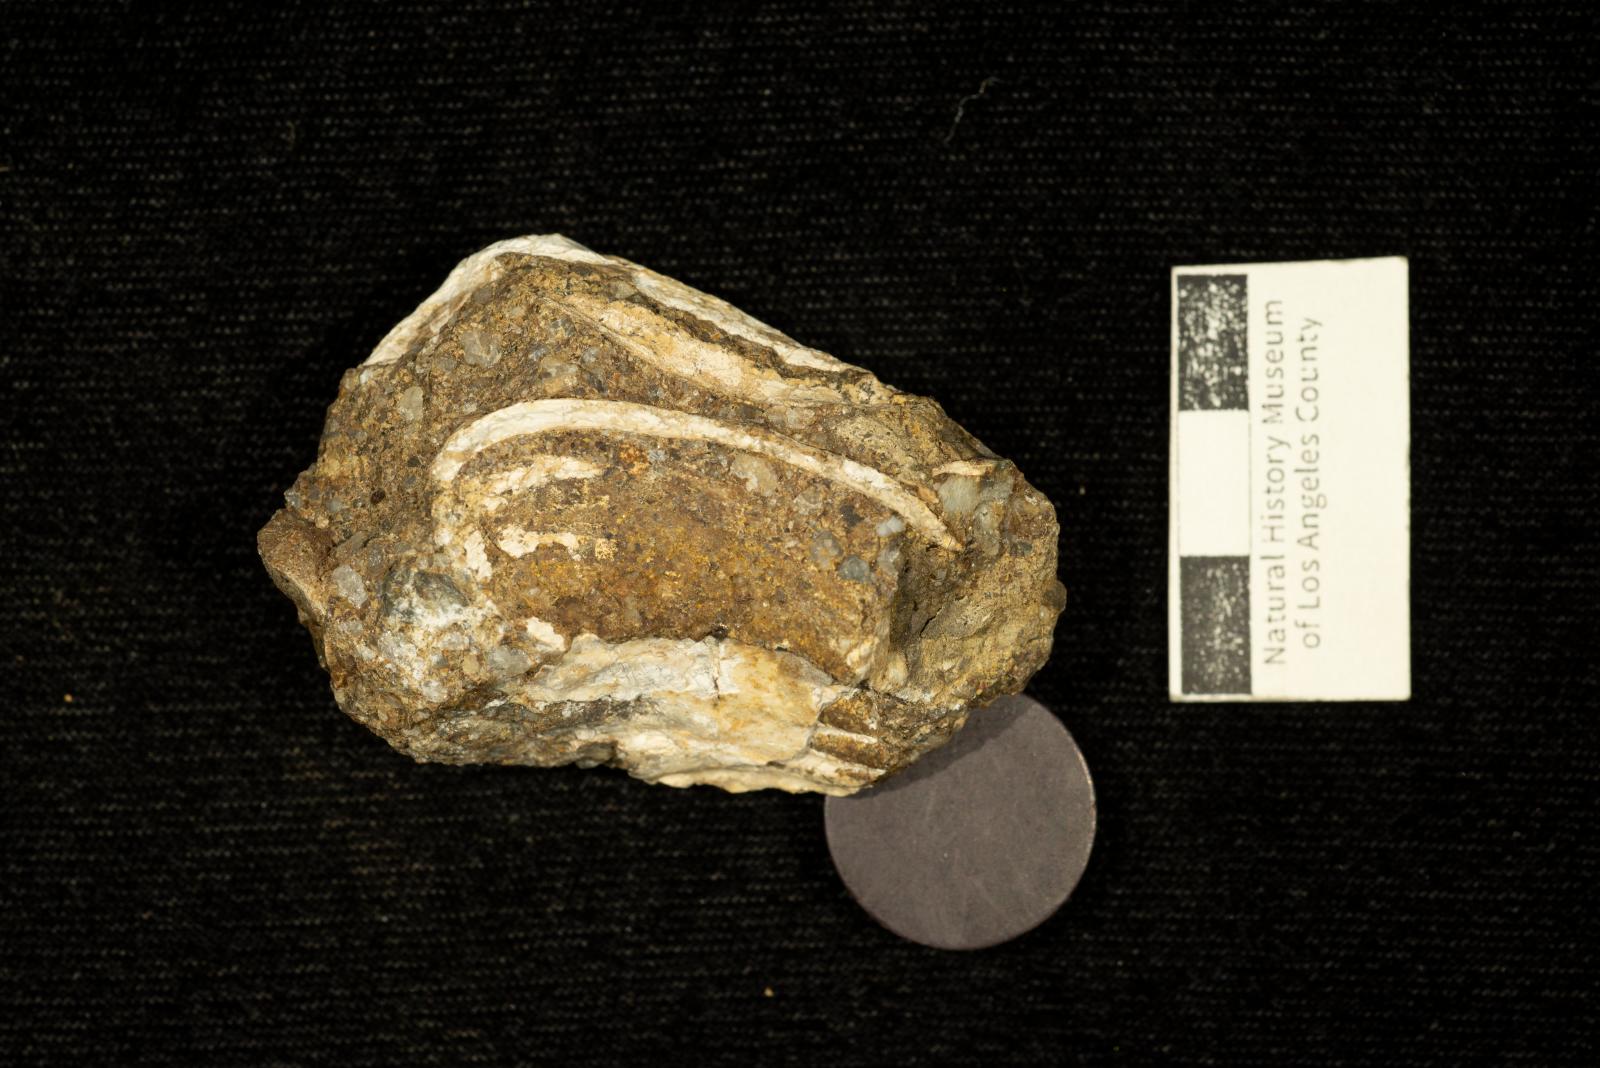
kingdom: Animalia
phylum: Mollusca
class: Bivalvia
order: Carditida
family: Crassatellidae
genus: Crassatella
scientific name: Crassatella lomana
